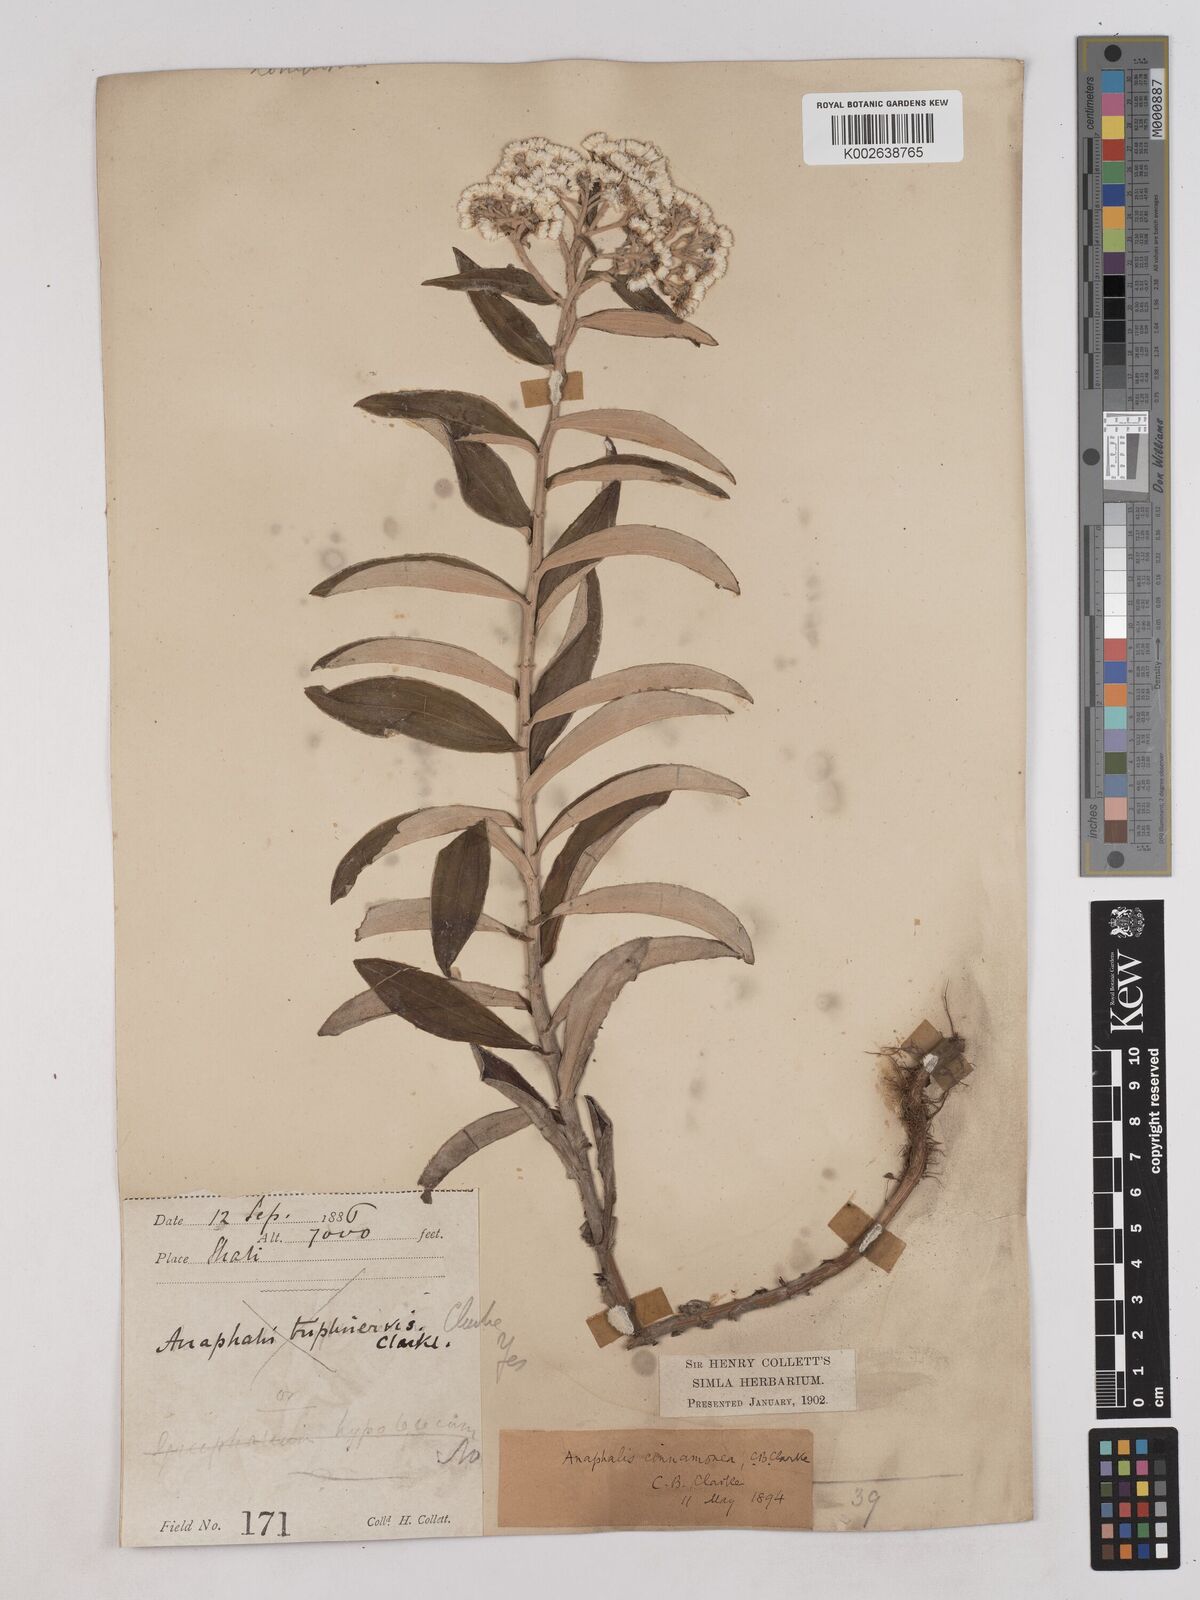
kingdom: Plantae
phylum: Tracheophyta
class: Magnoliopsida
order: Asterales
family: Asteraceae
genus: Anaphalis
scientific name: Anaphalis marcescens
